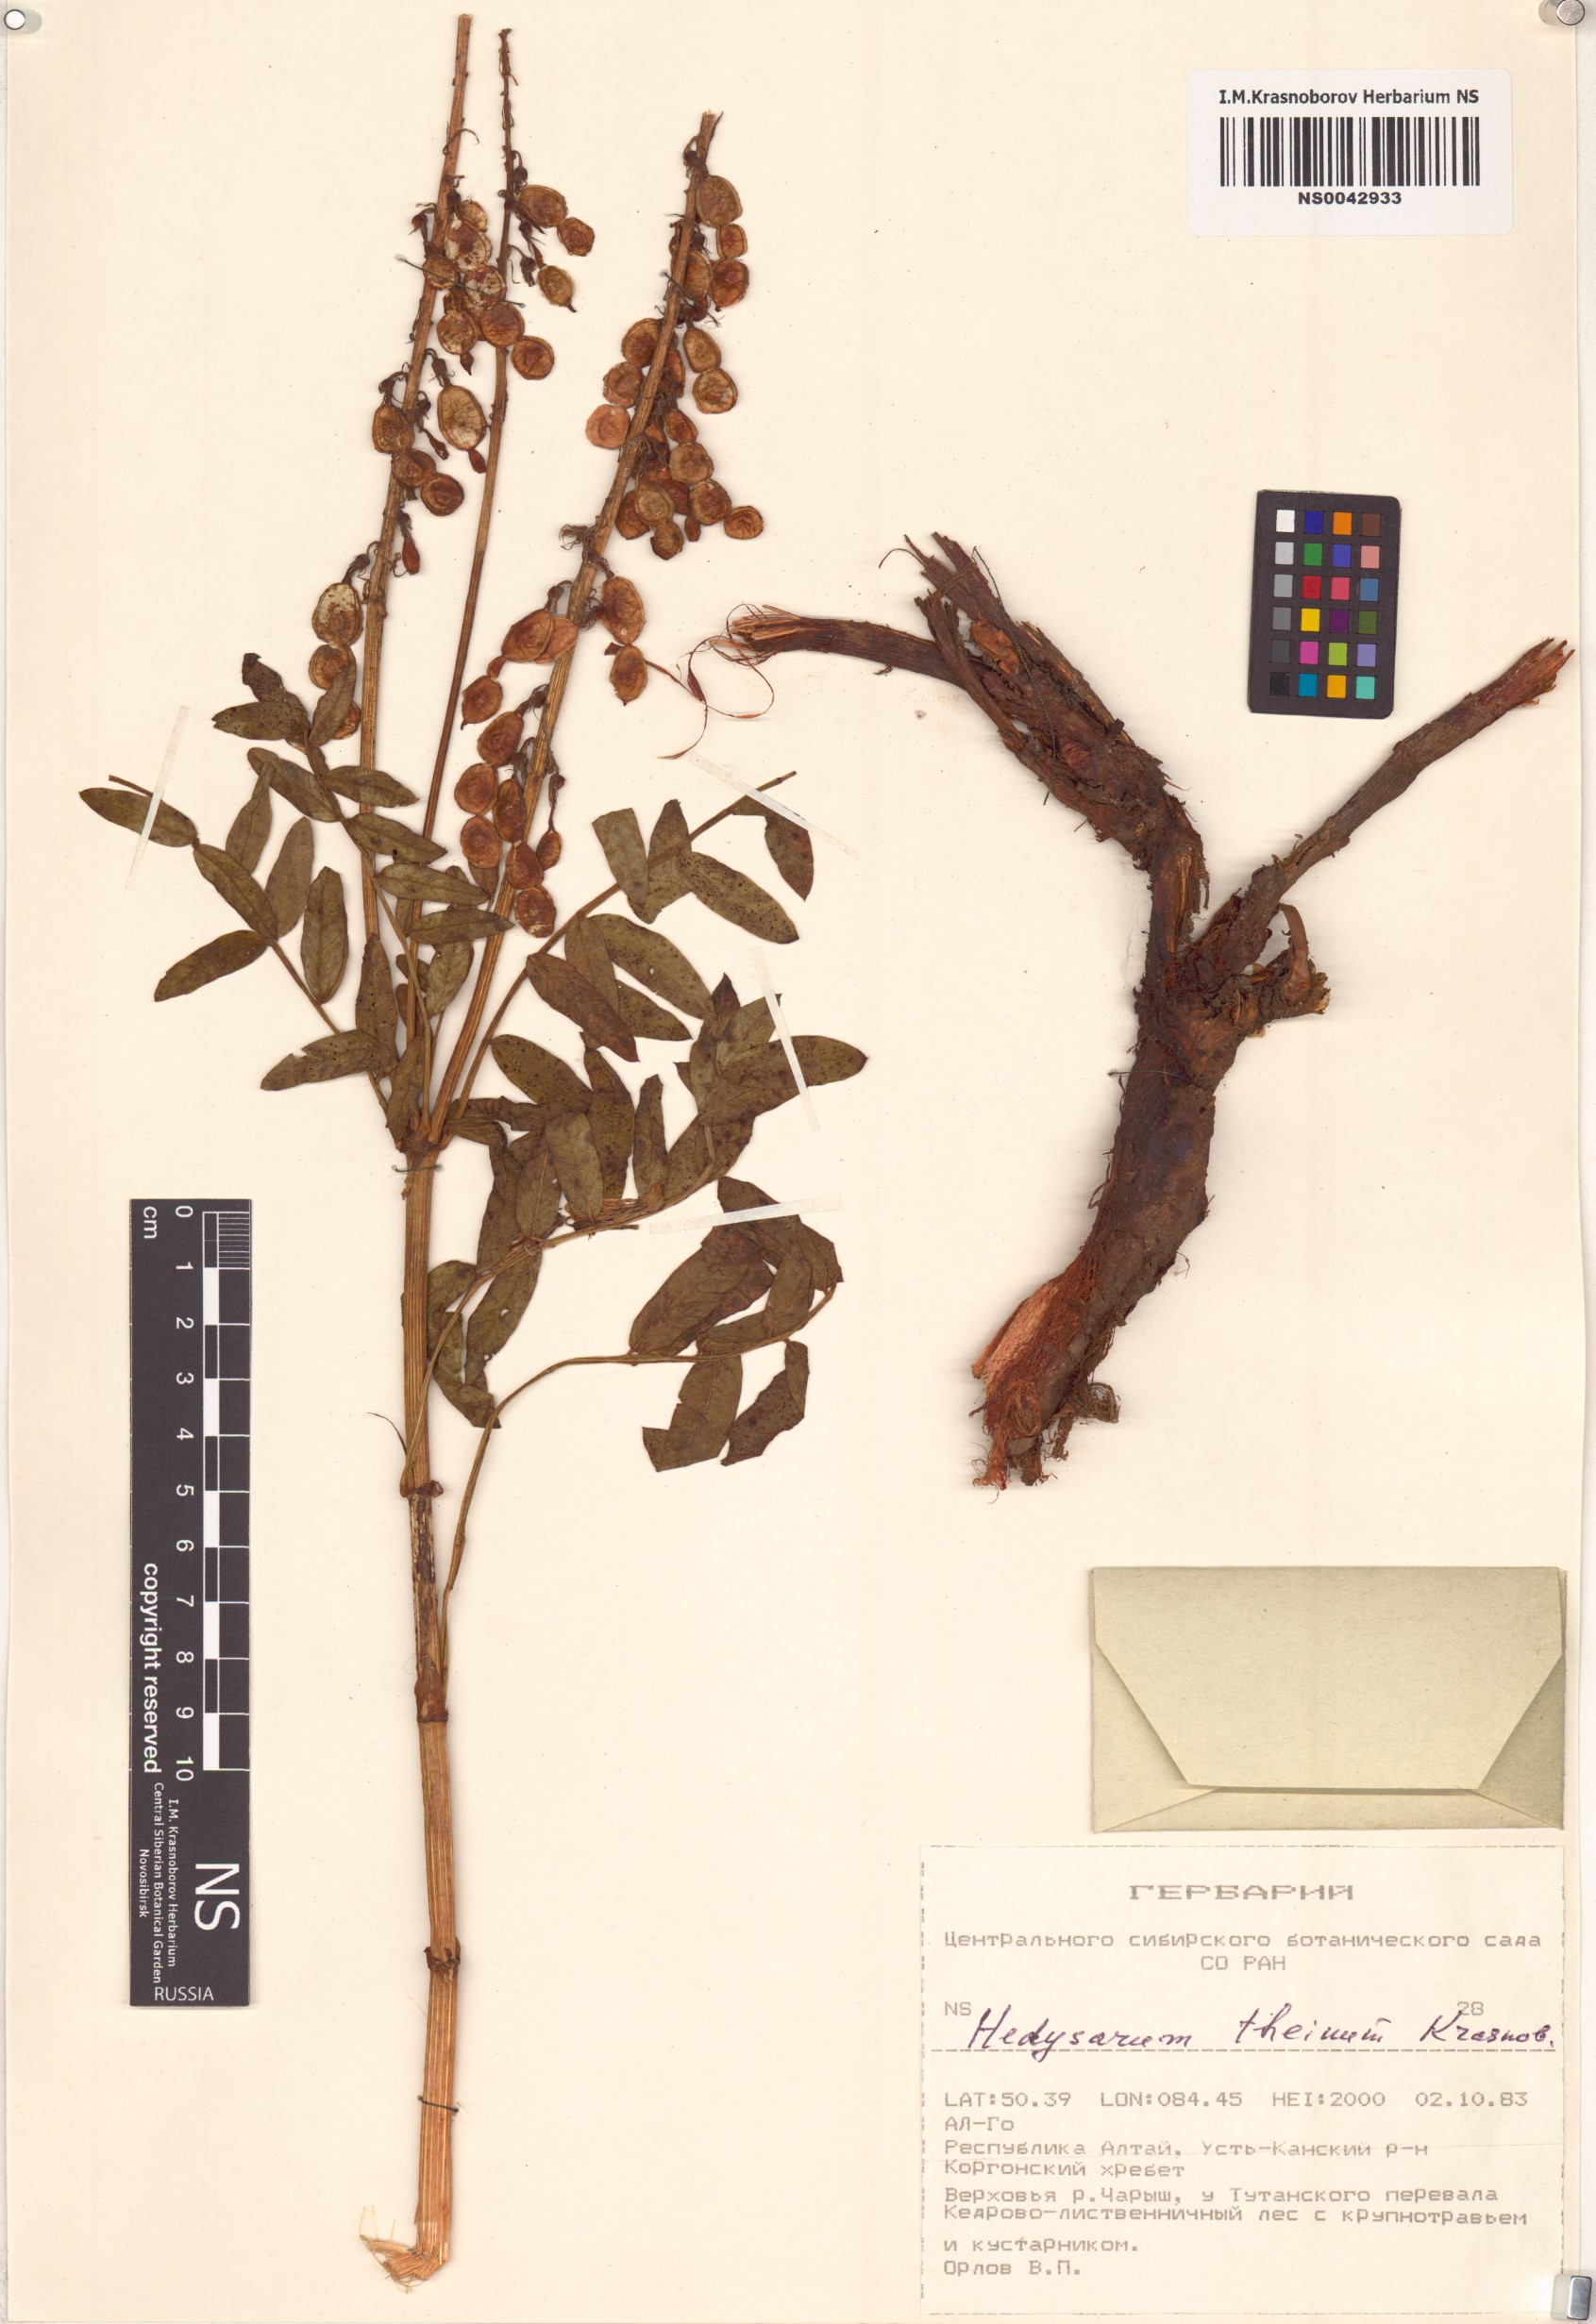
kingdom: Plantae
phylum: Tracheophyta
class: Magnoliopsida
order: Fabales
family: Fabaceae
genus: Hedysarum
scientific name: Hedysarum theinum
